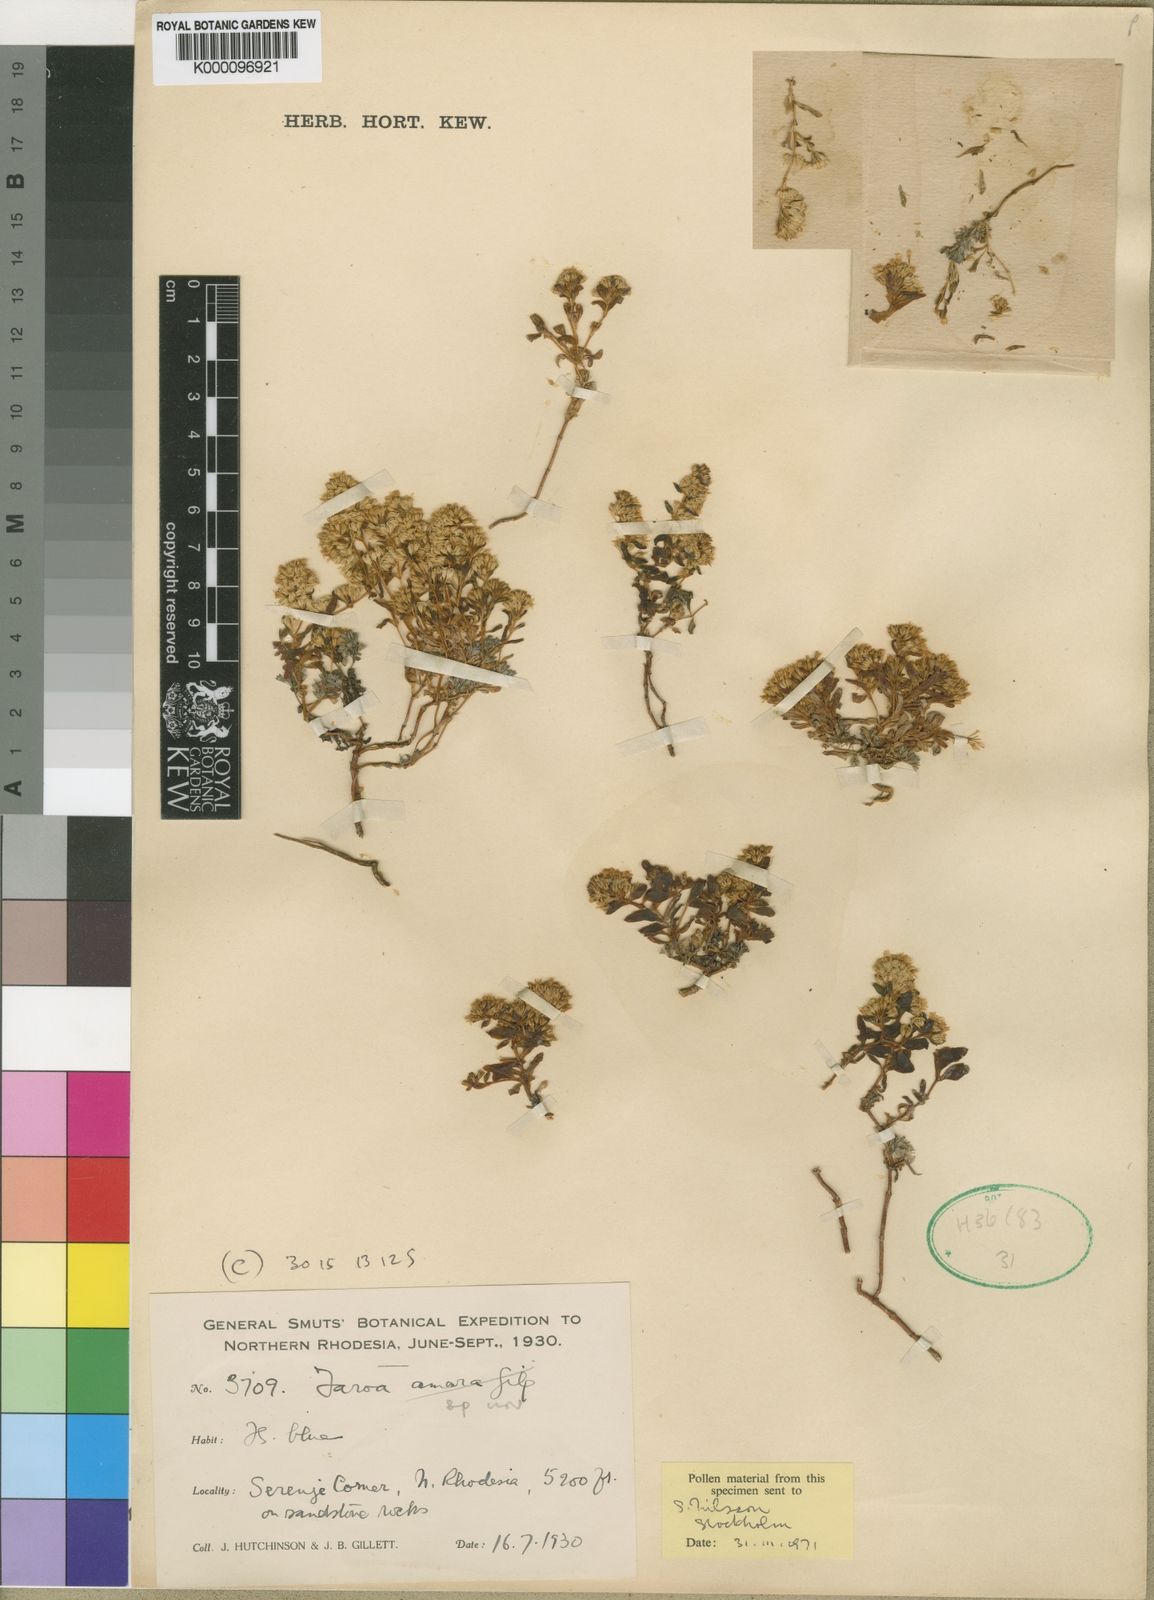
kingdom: Plantae
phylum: Tracheophyta
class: Magnoliopsida
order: Gentianales
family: Gentianaceae
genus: Faroa
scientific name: Faroa hutchinsonii
